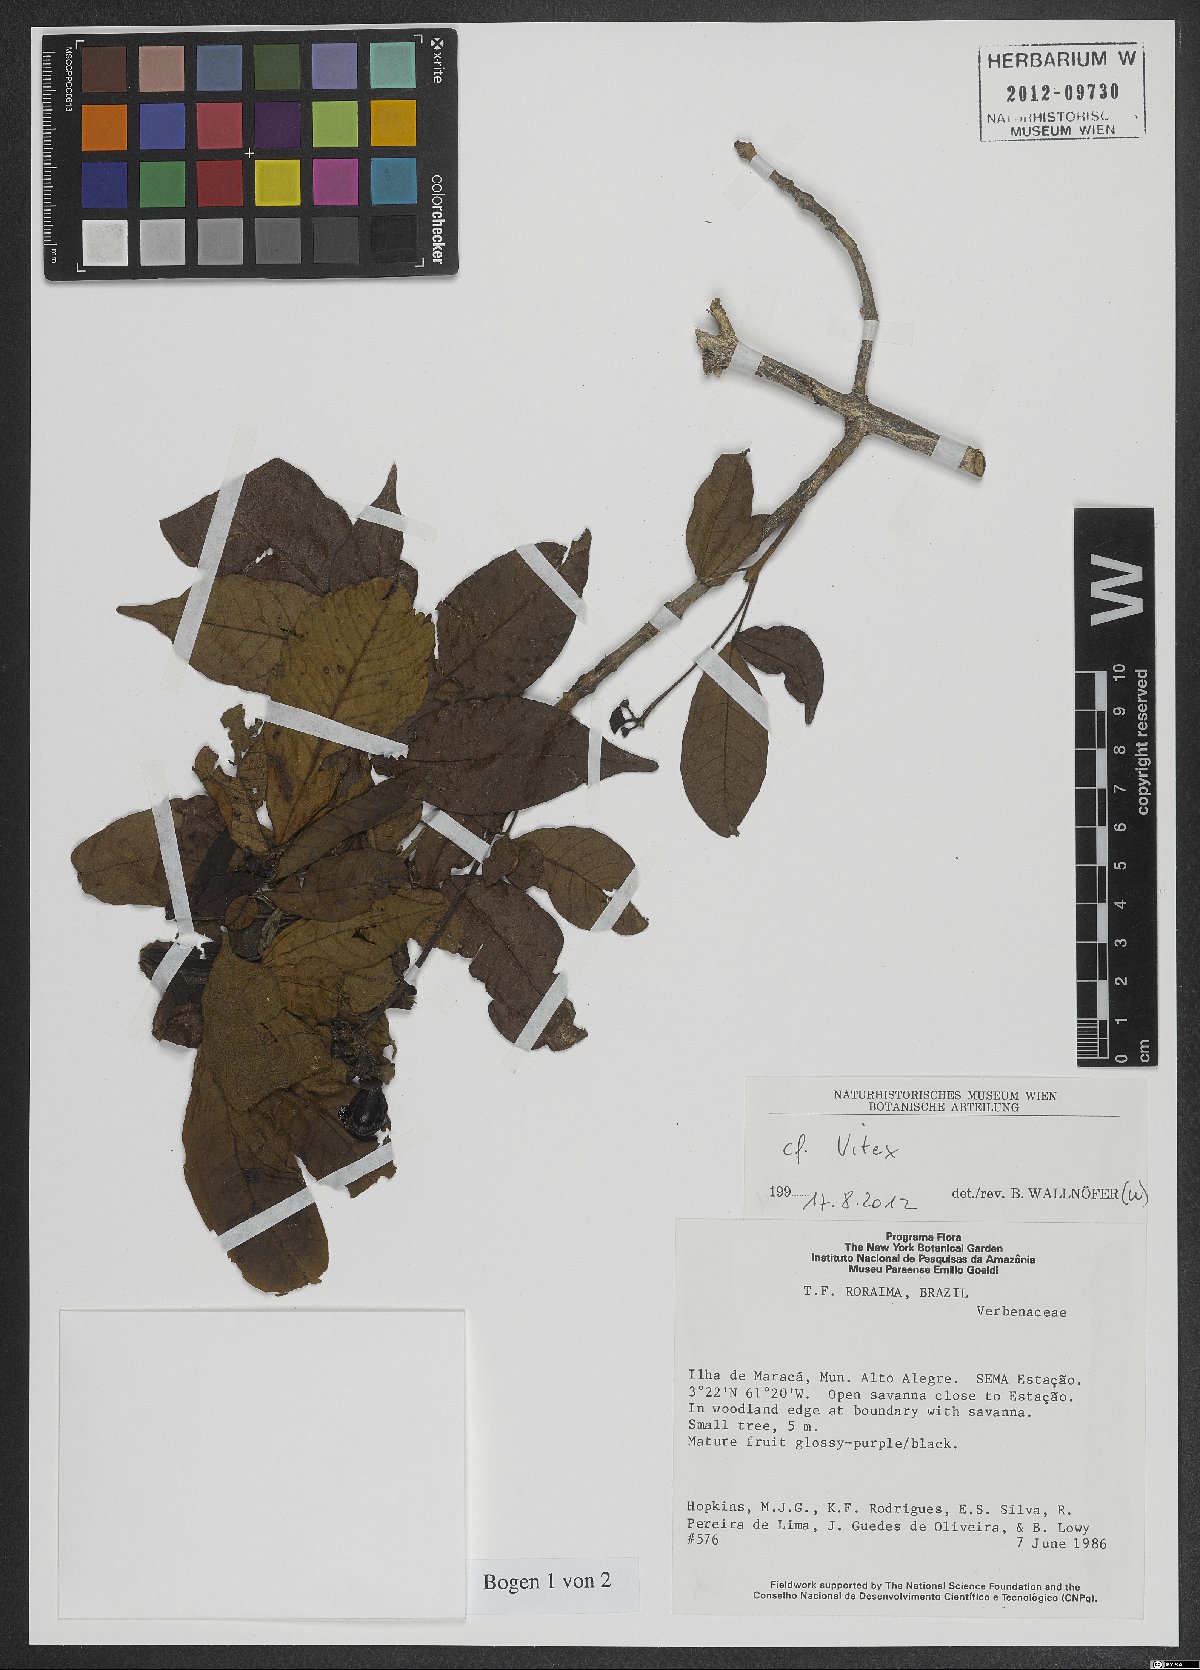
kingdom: Plantae
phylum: Tracheophyta
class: Magnoliopsida
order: Lamiales
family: Lamiaceae
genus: Vitex
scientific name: Vitex
